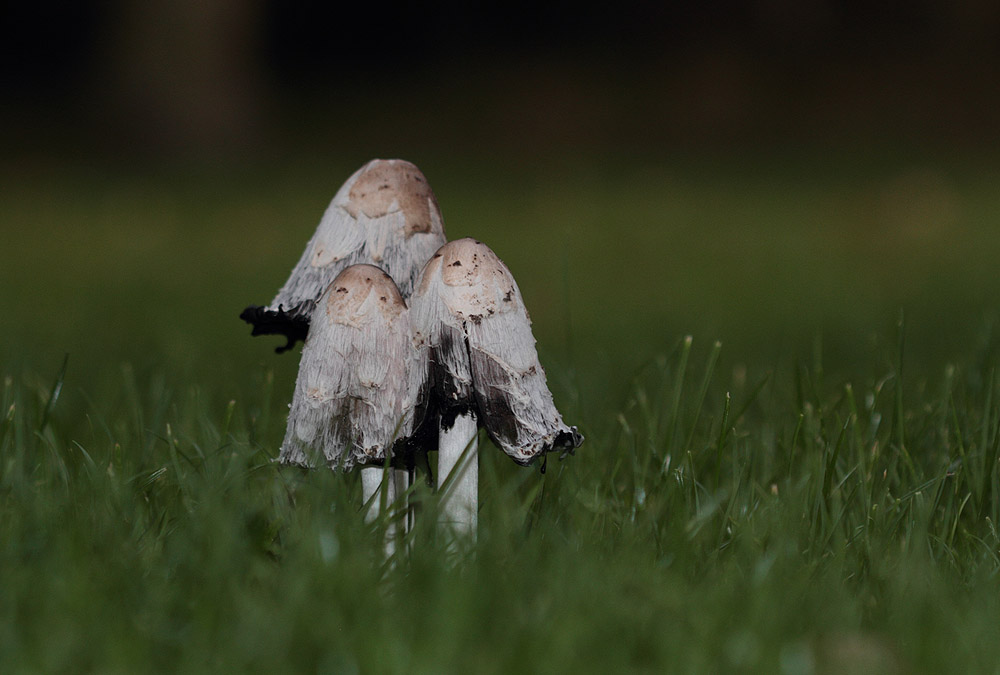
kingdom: Fungi
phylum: Basidiomycota
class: Agaricomycetes
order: Agaricales
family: Agaricaceae
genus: Coprinus
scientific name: Coprinus comatus
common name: stor parykhat
